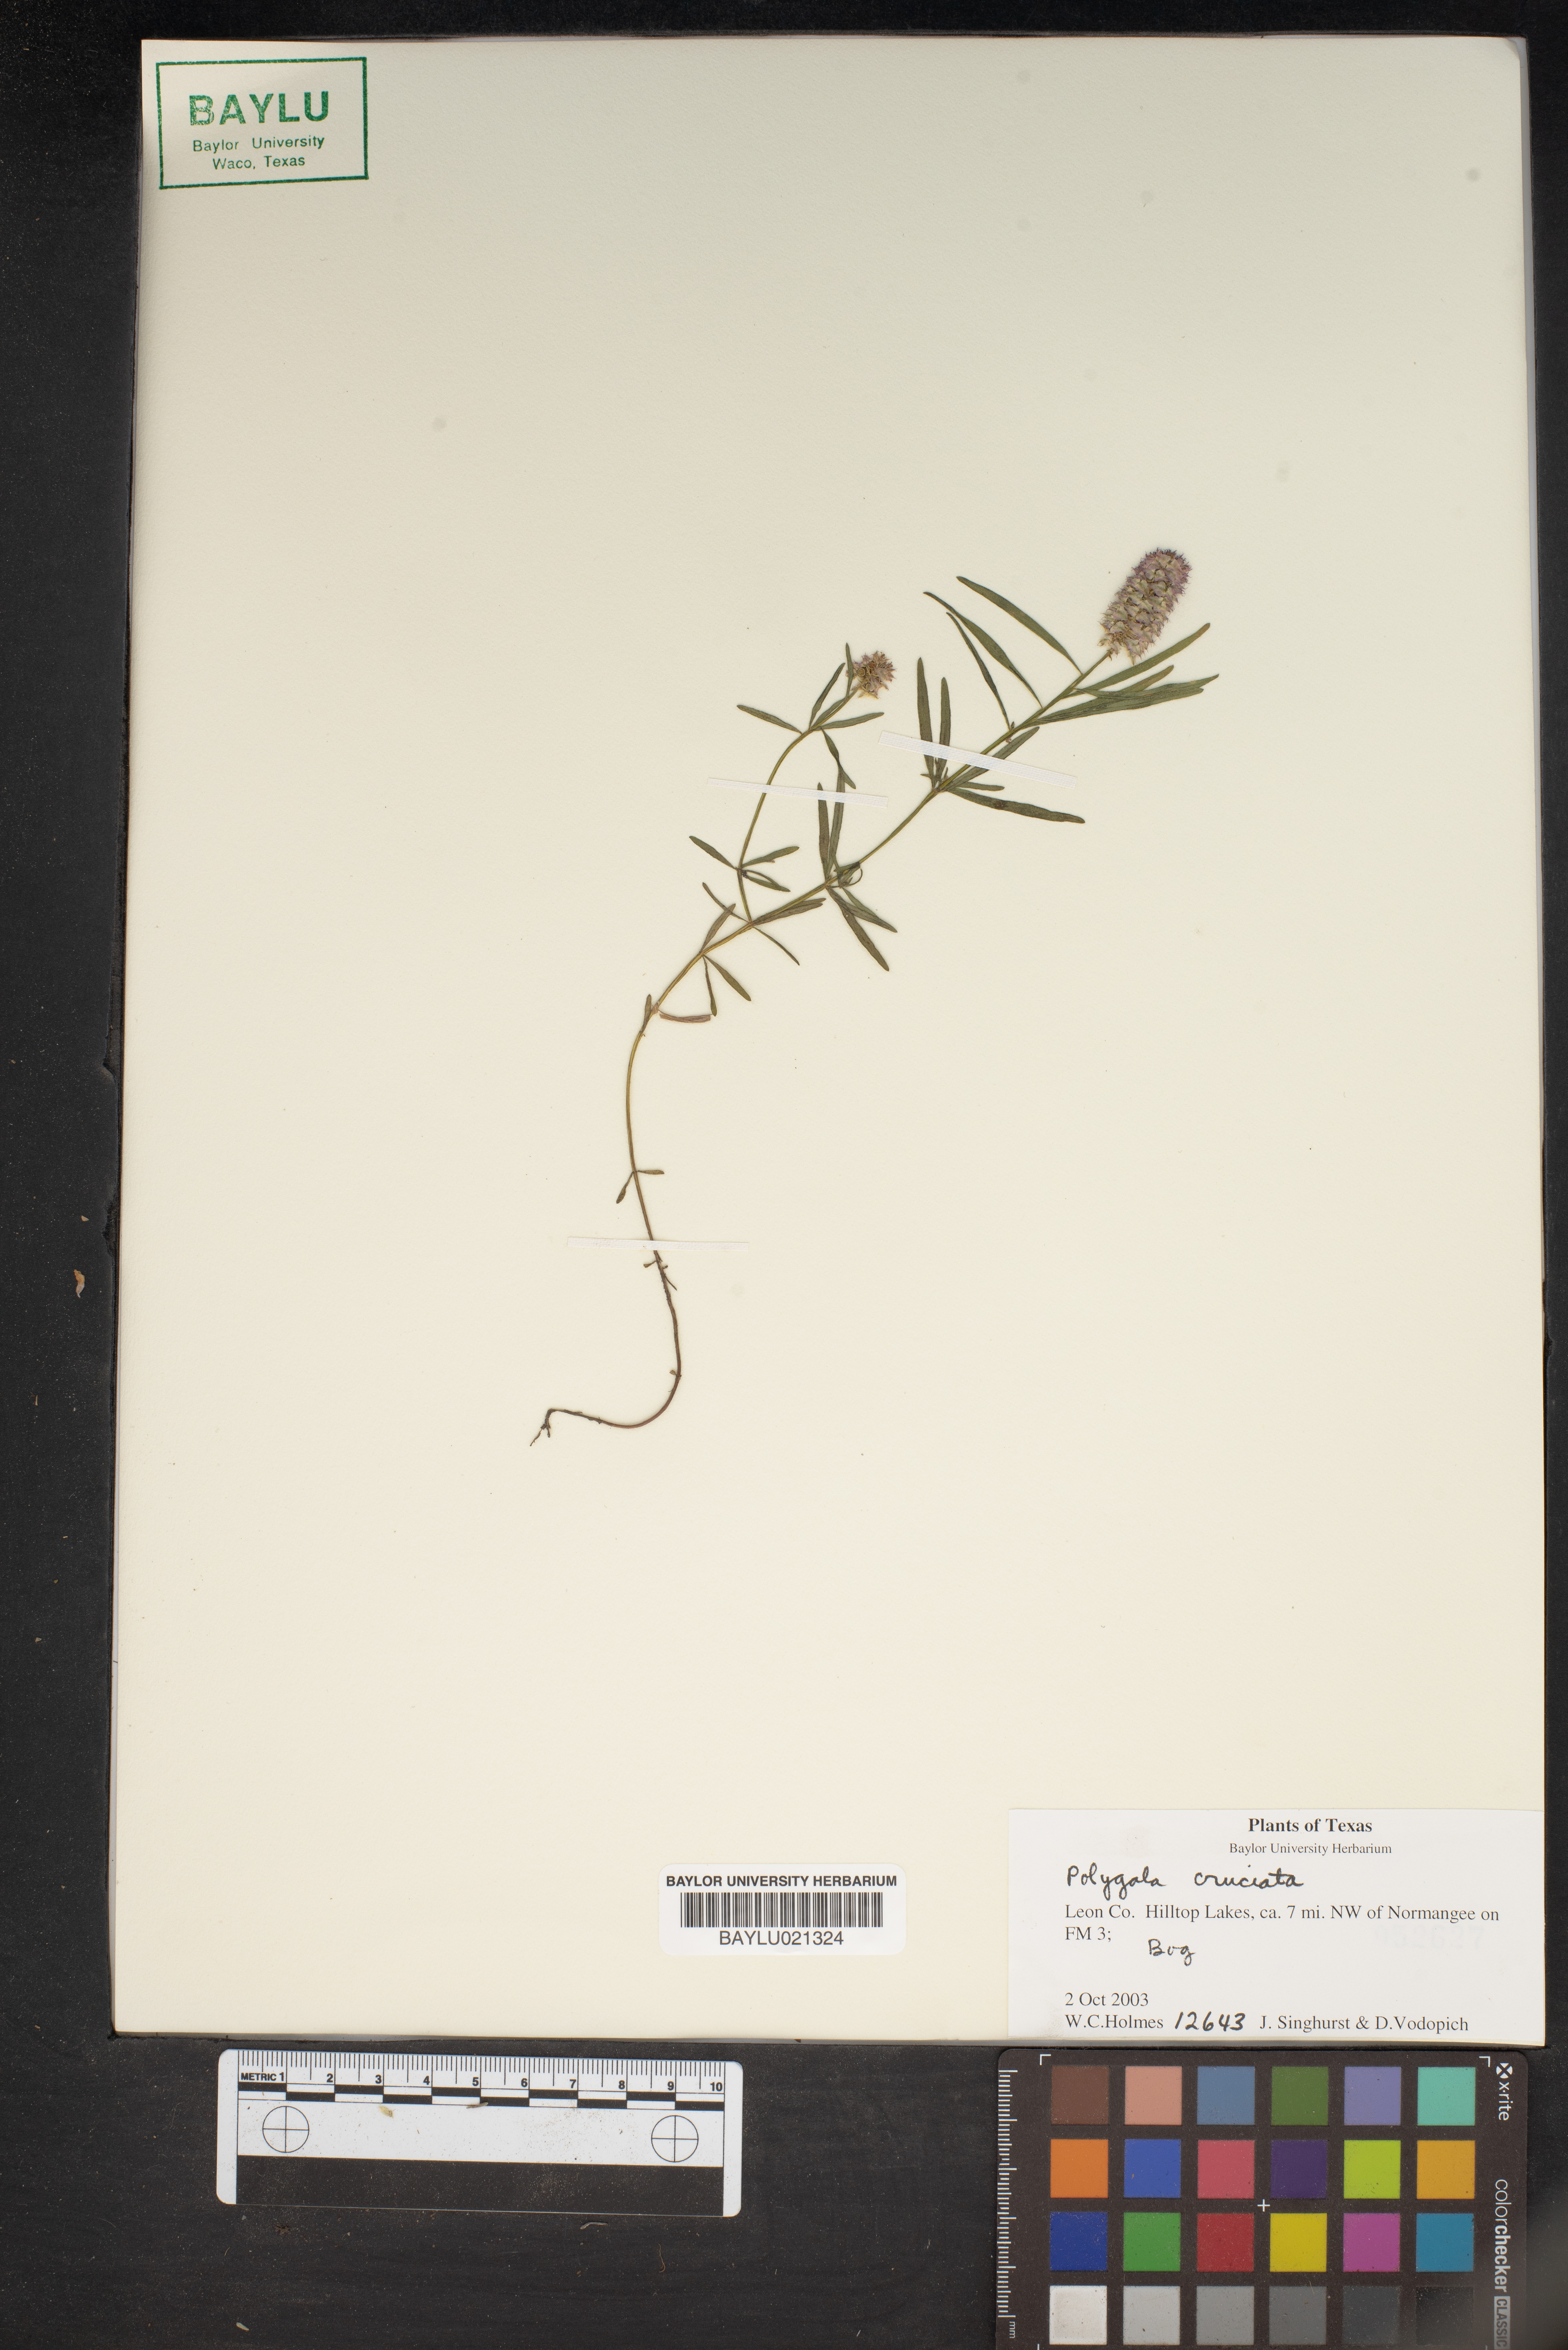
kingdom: Plantae
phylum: Tracheophyta
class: Magnoliopsida
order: Fabales
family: Polygalaceae
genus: Polygala
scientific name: Polygala cruciata
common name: Drumheads
